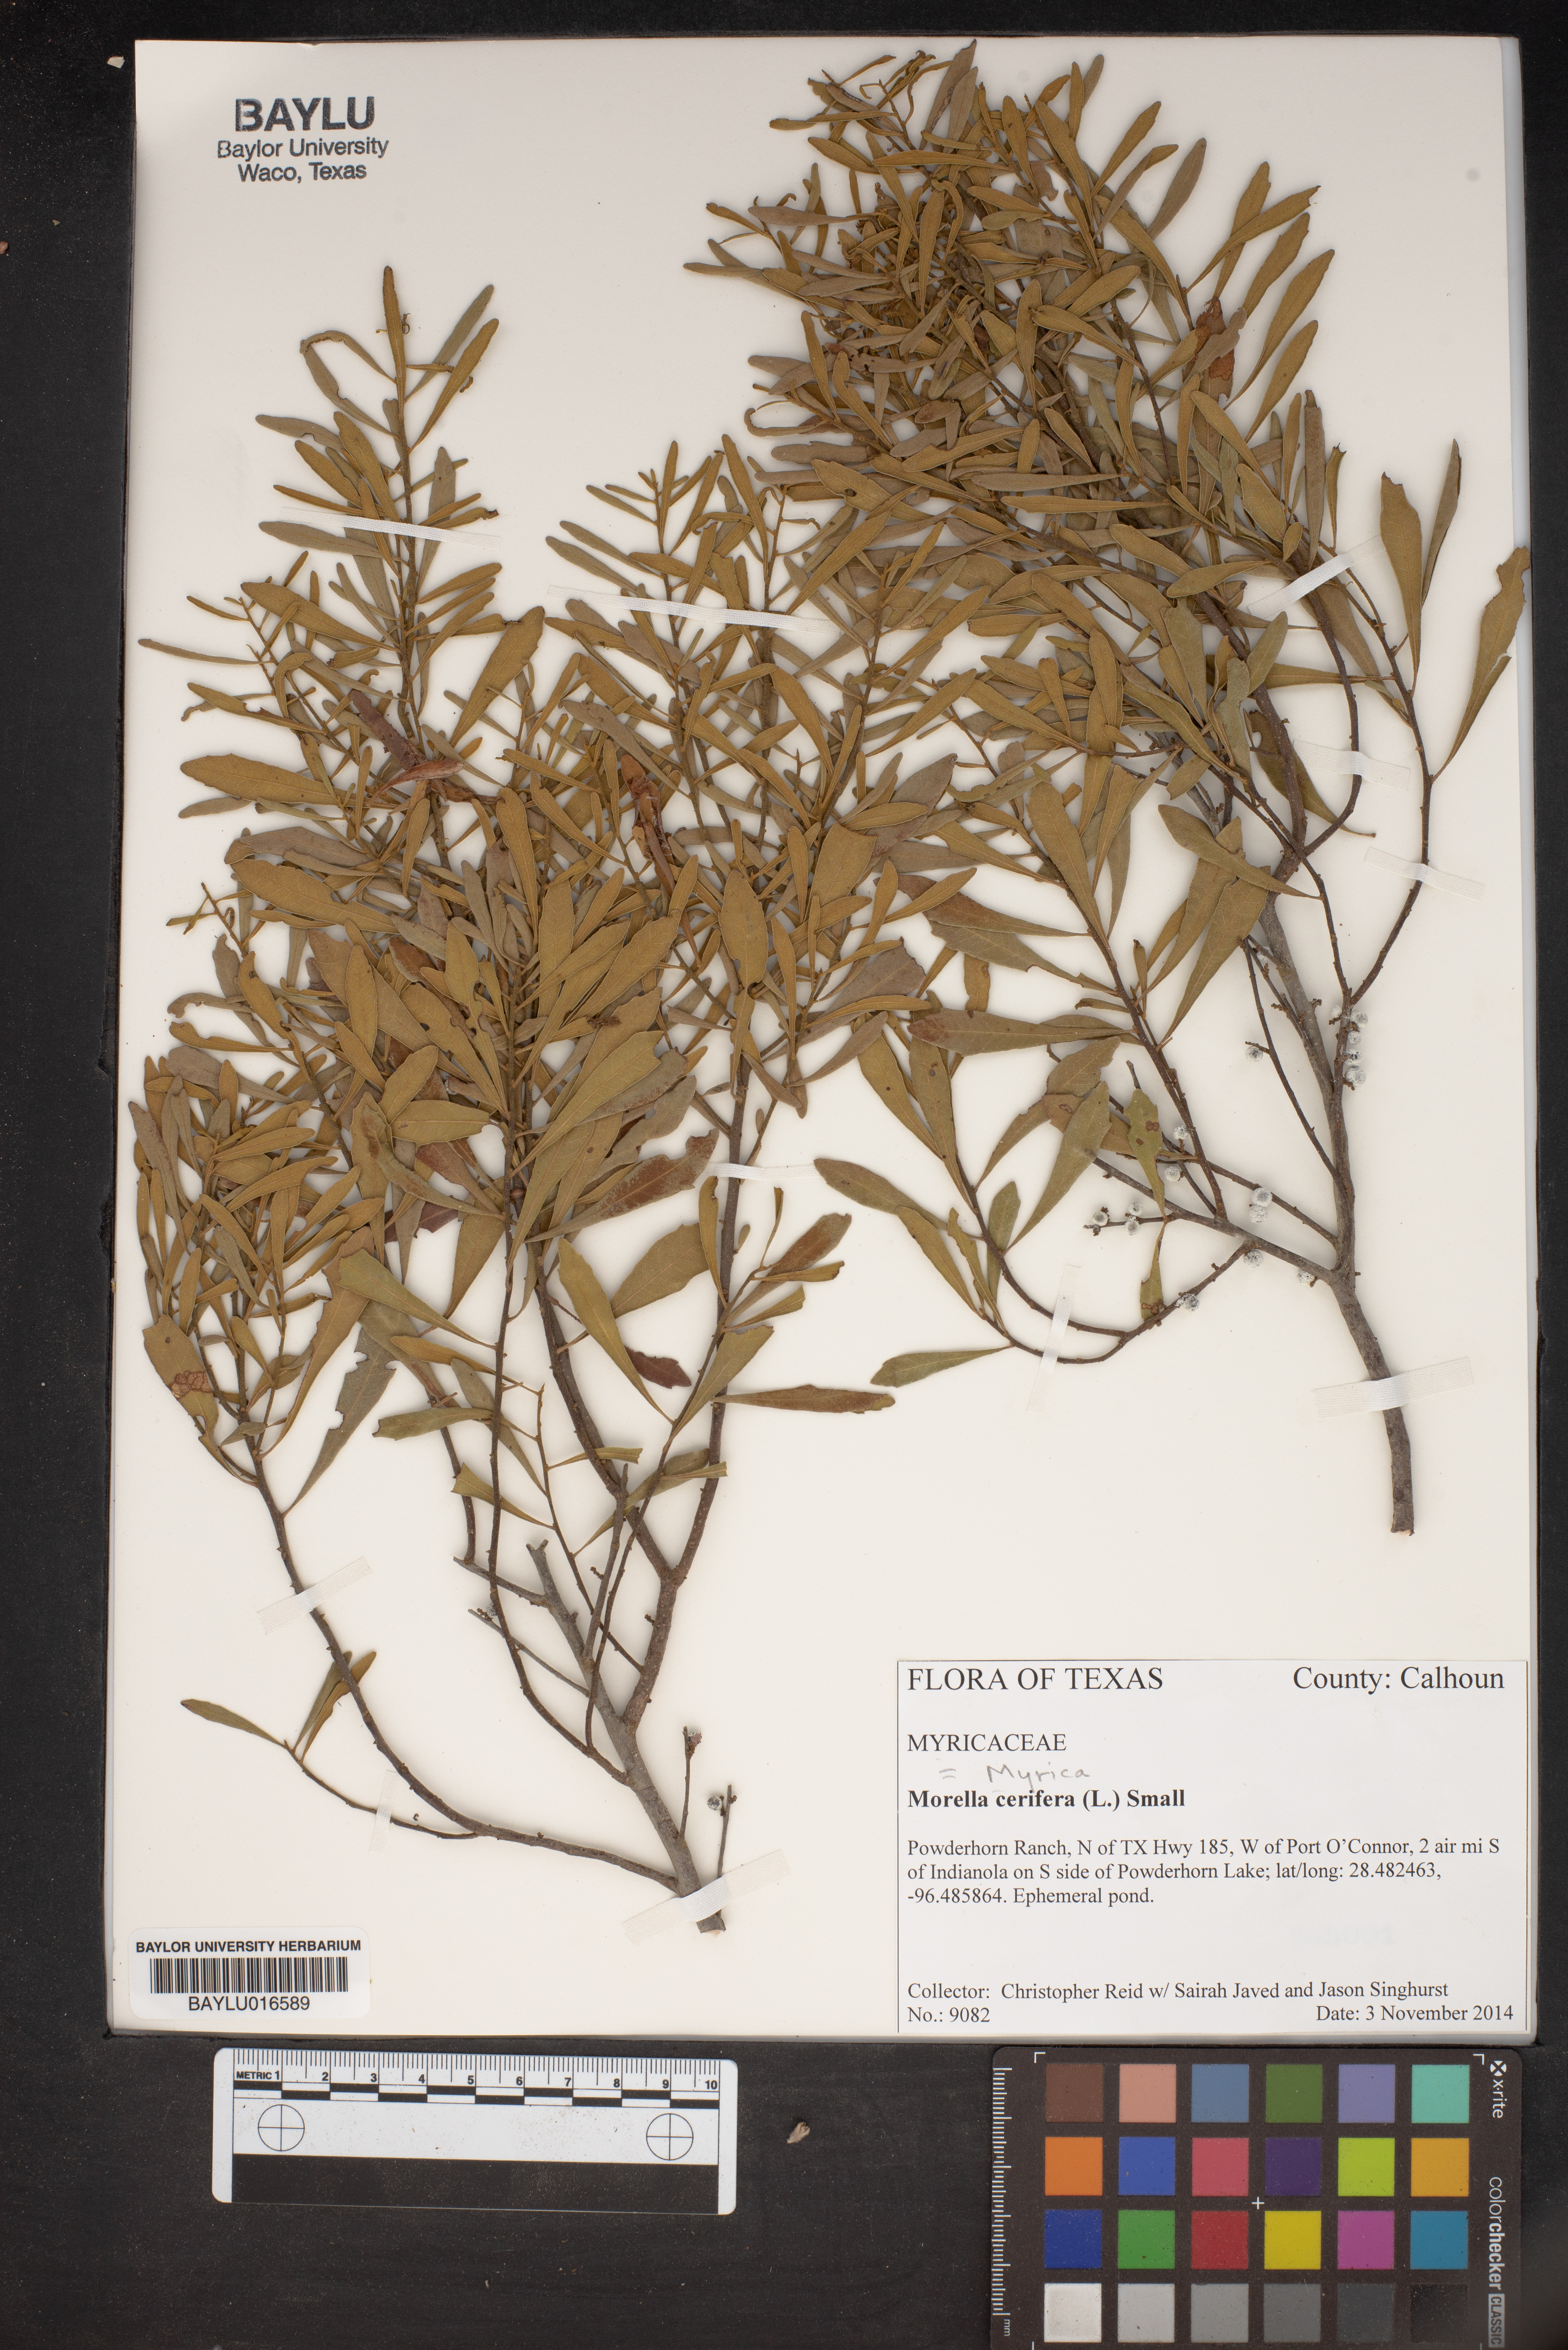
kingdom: Plantae
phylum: Tracheophyta
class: Magnoliopsida
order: Fagales
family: Myricaceae
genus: Morella
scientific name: Morella cerifera
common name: Wax myrtle
